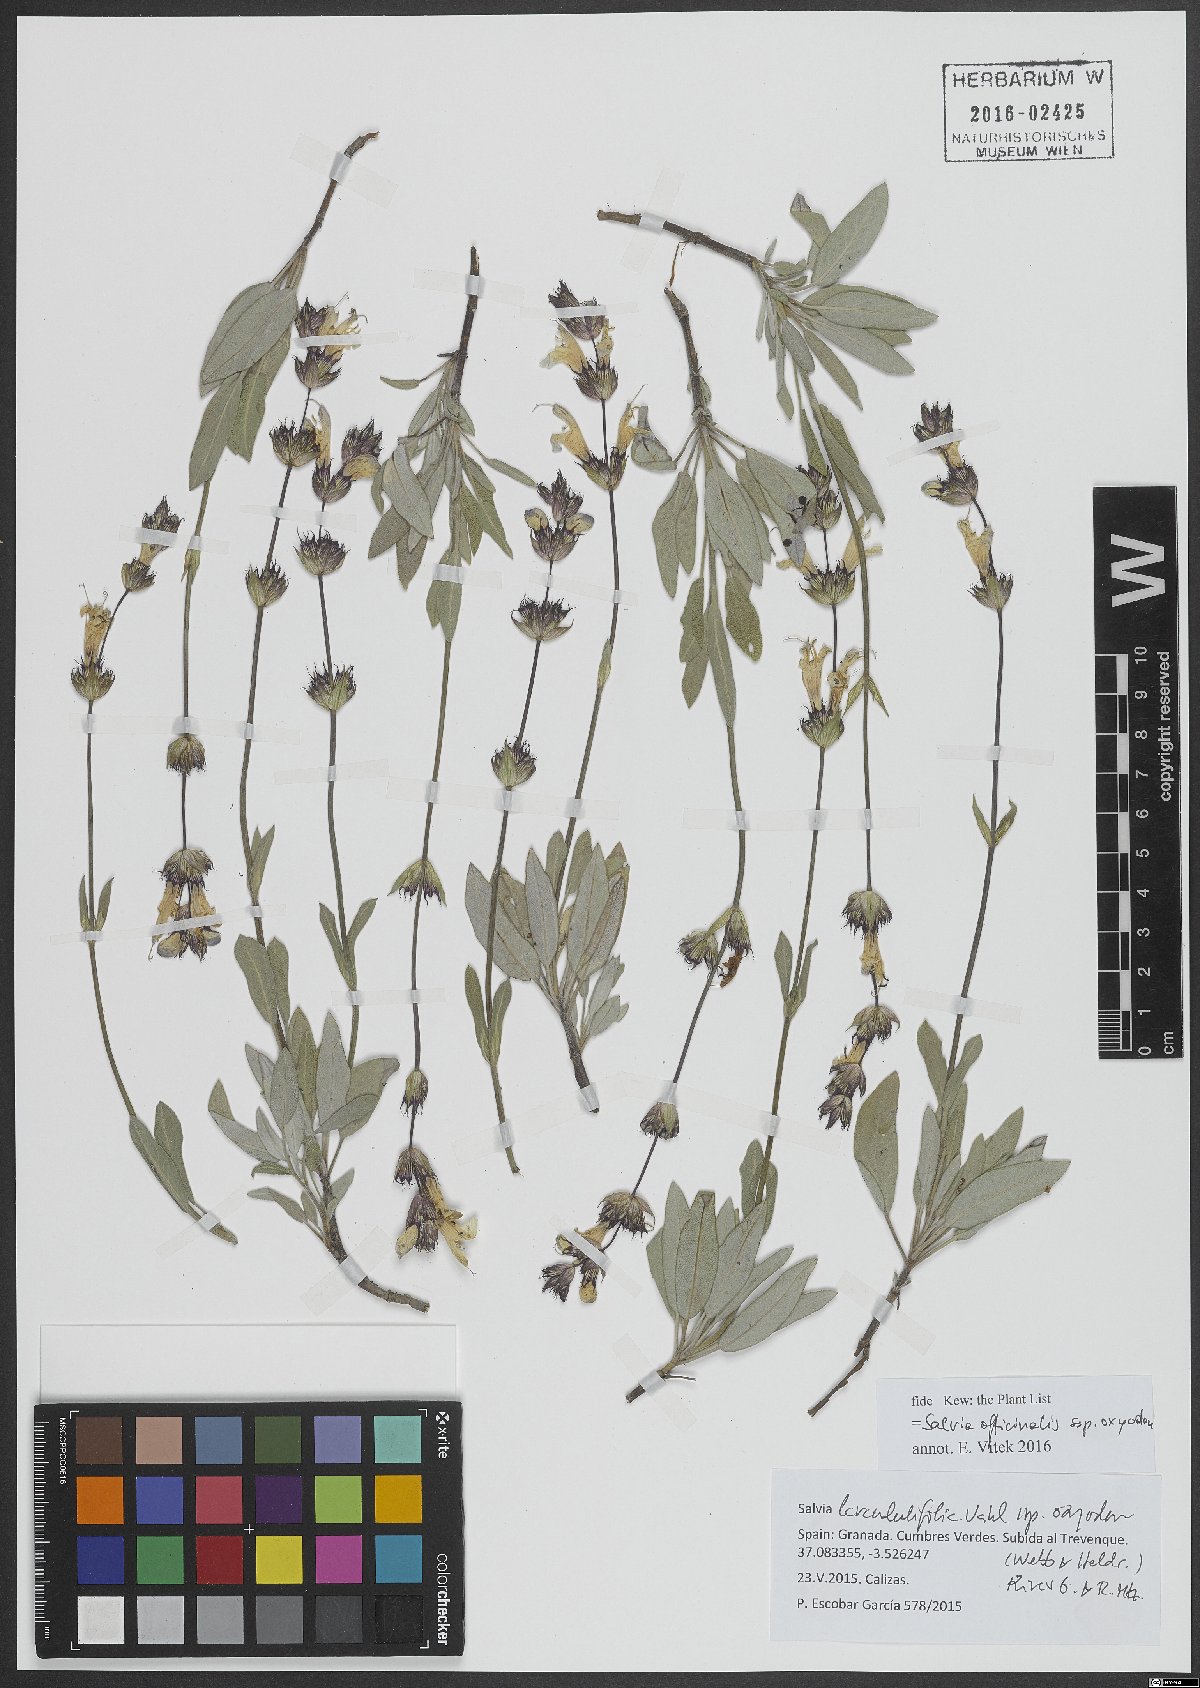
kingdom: Plantae
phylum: Tracheophyta
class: Magnoliopsida
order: Lamiales
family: Lamiaceae
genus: Salvia
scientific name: Salvia officinalis
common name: Sage
